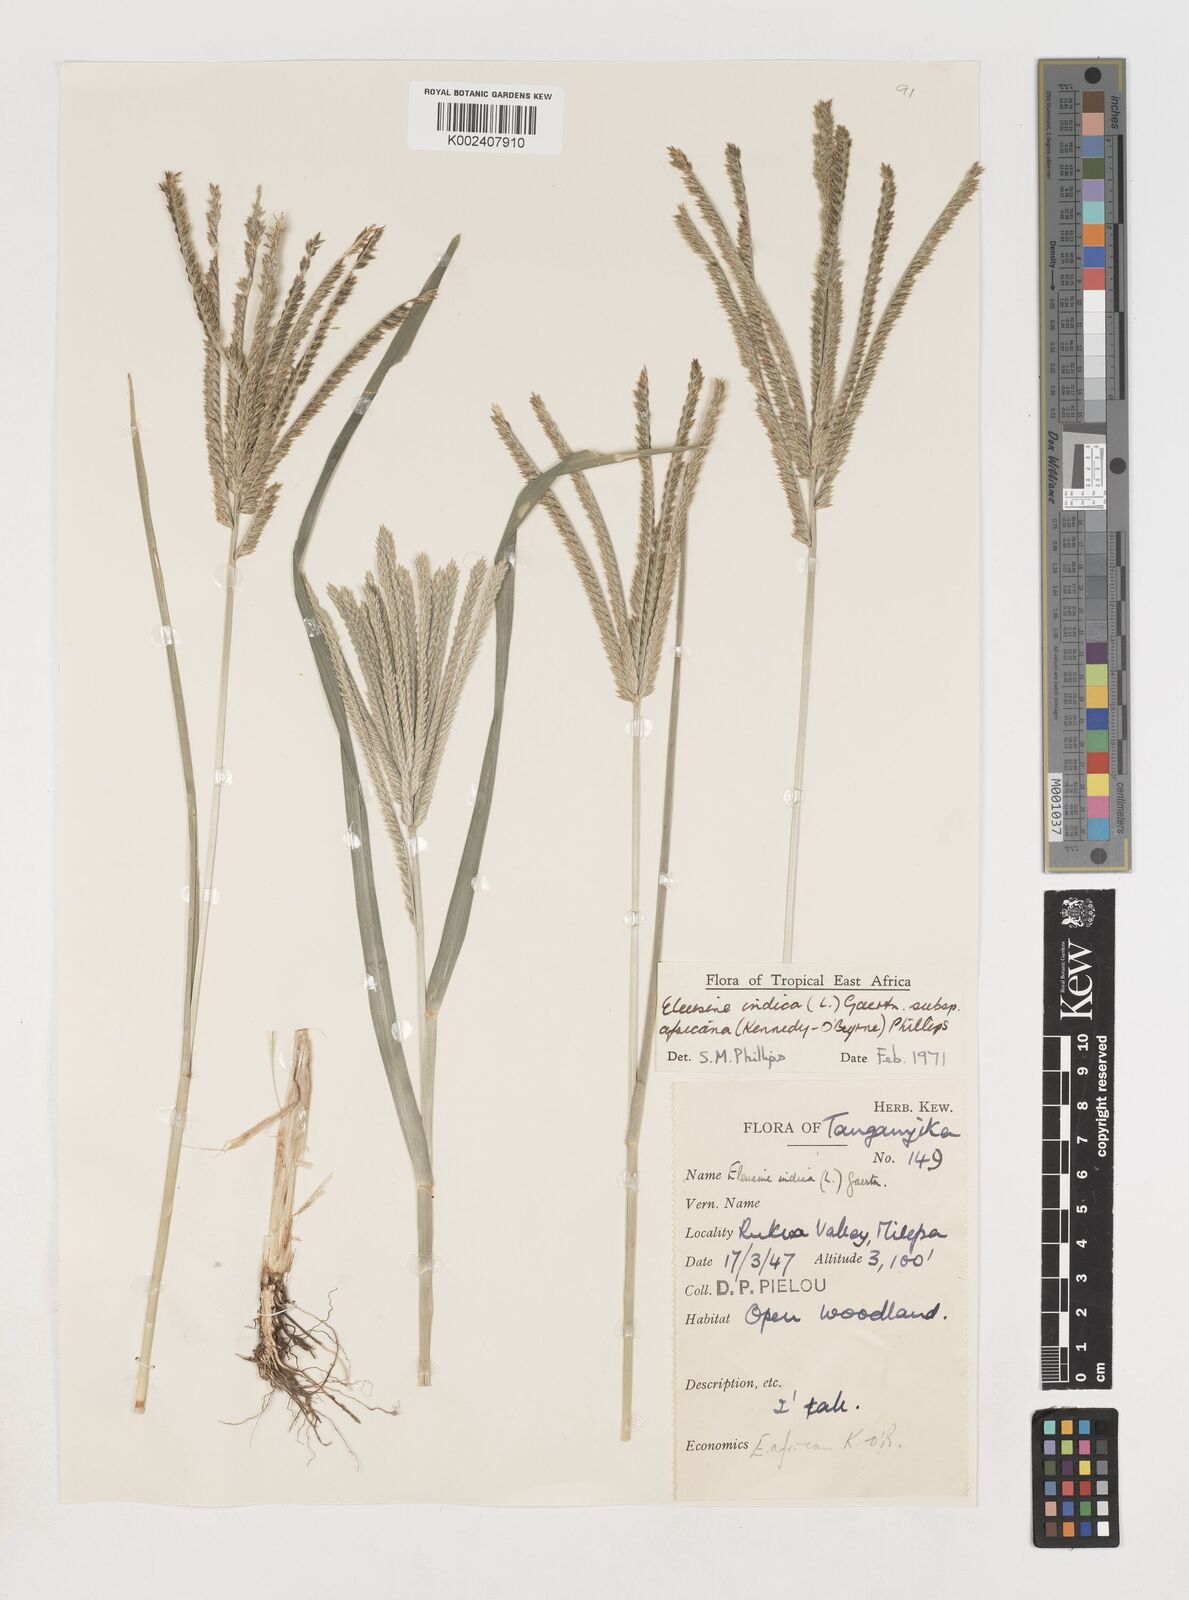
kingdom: Plantae
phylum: Tracheophyta
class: Liliopsida
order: Poales
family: Poaceae
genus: Eleusine
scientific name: Eleusine africana
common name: Wild african finger millet
